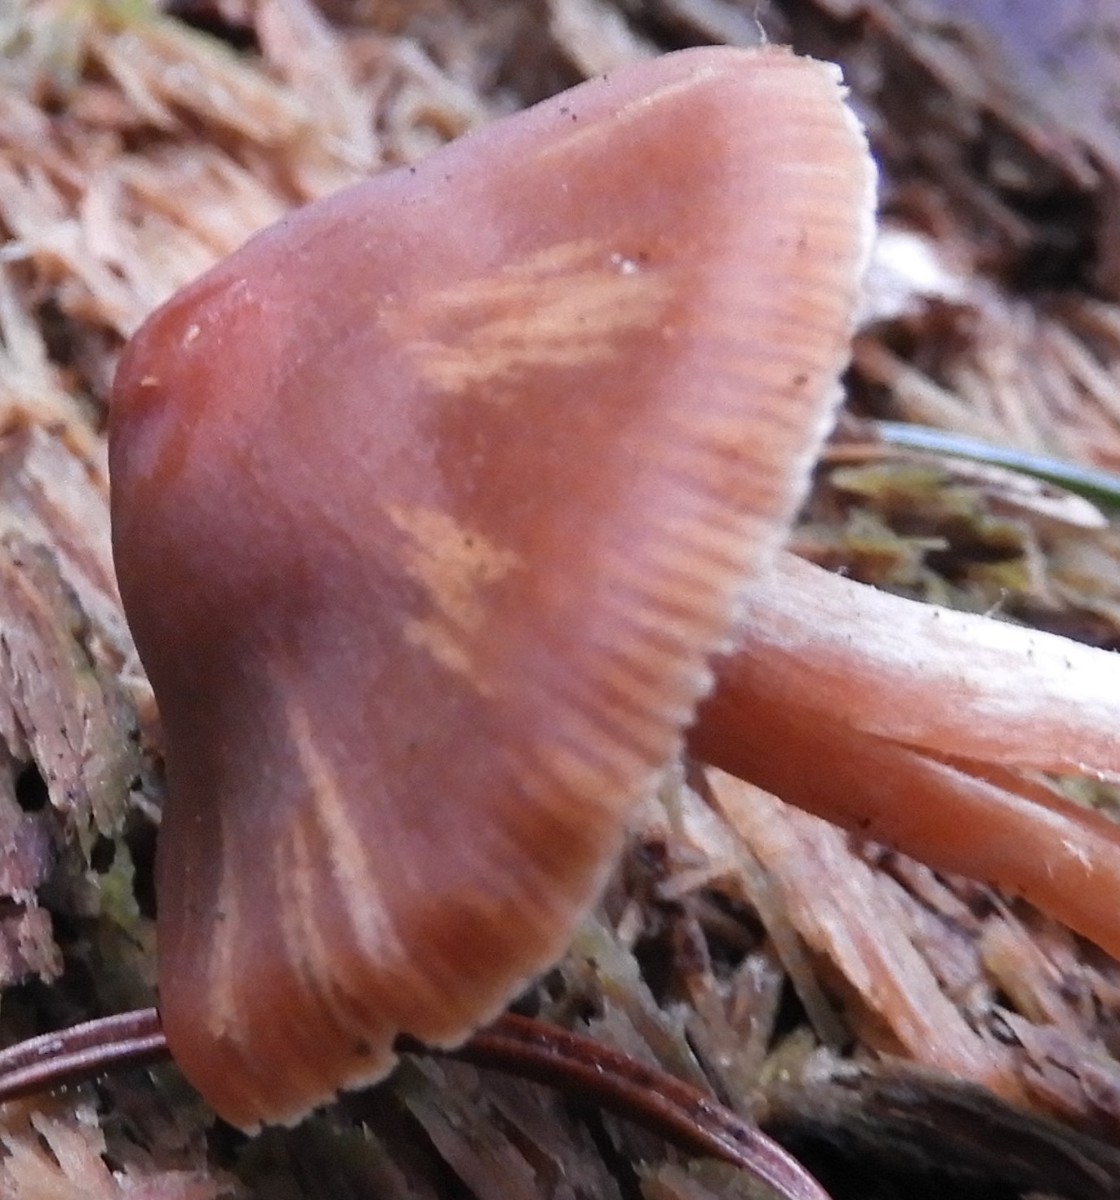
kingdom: Fungi
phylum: Basidiomycota
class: Agaricomycetes
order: Agaricales
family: Cortinariaceae
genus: Cortinarius
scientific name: Cortinarius
